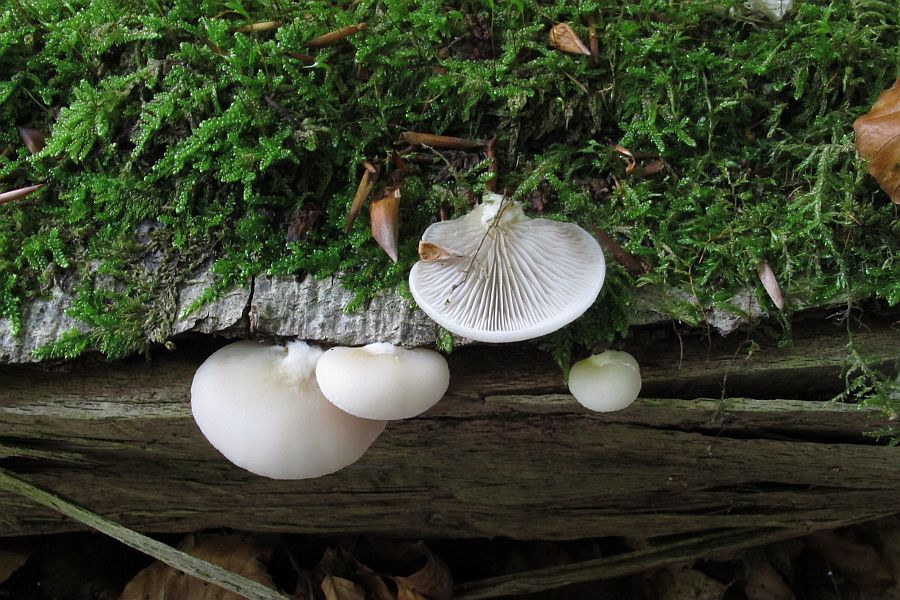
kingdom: Fungi
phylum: Basidiomycota
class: Agaricomycetes
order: Agaricales
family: Crepidotaceae
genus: Crepidotus
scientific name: Crepidotus caspari
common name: Lundells muslingesvamp
